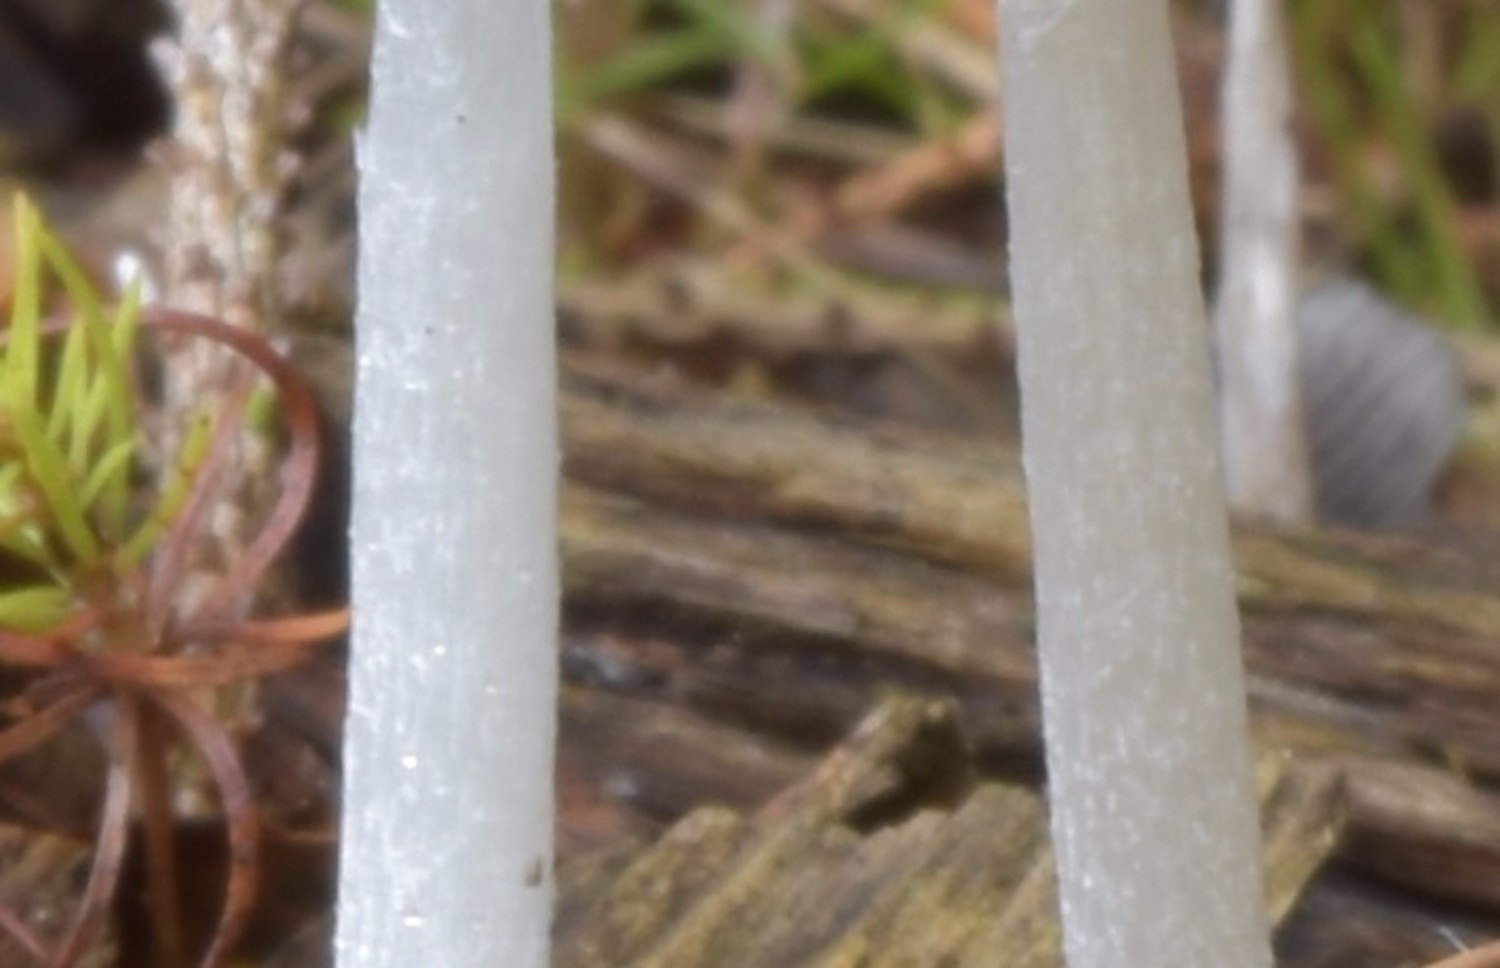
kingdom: Fungi
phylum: Basidiomycota
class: Agaricomycetes
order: Agaricales
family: Psathyrellaceae
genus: Coprinopsis
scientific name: Coprinopsis lagopus
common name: dunstokket blækhat
